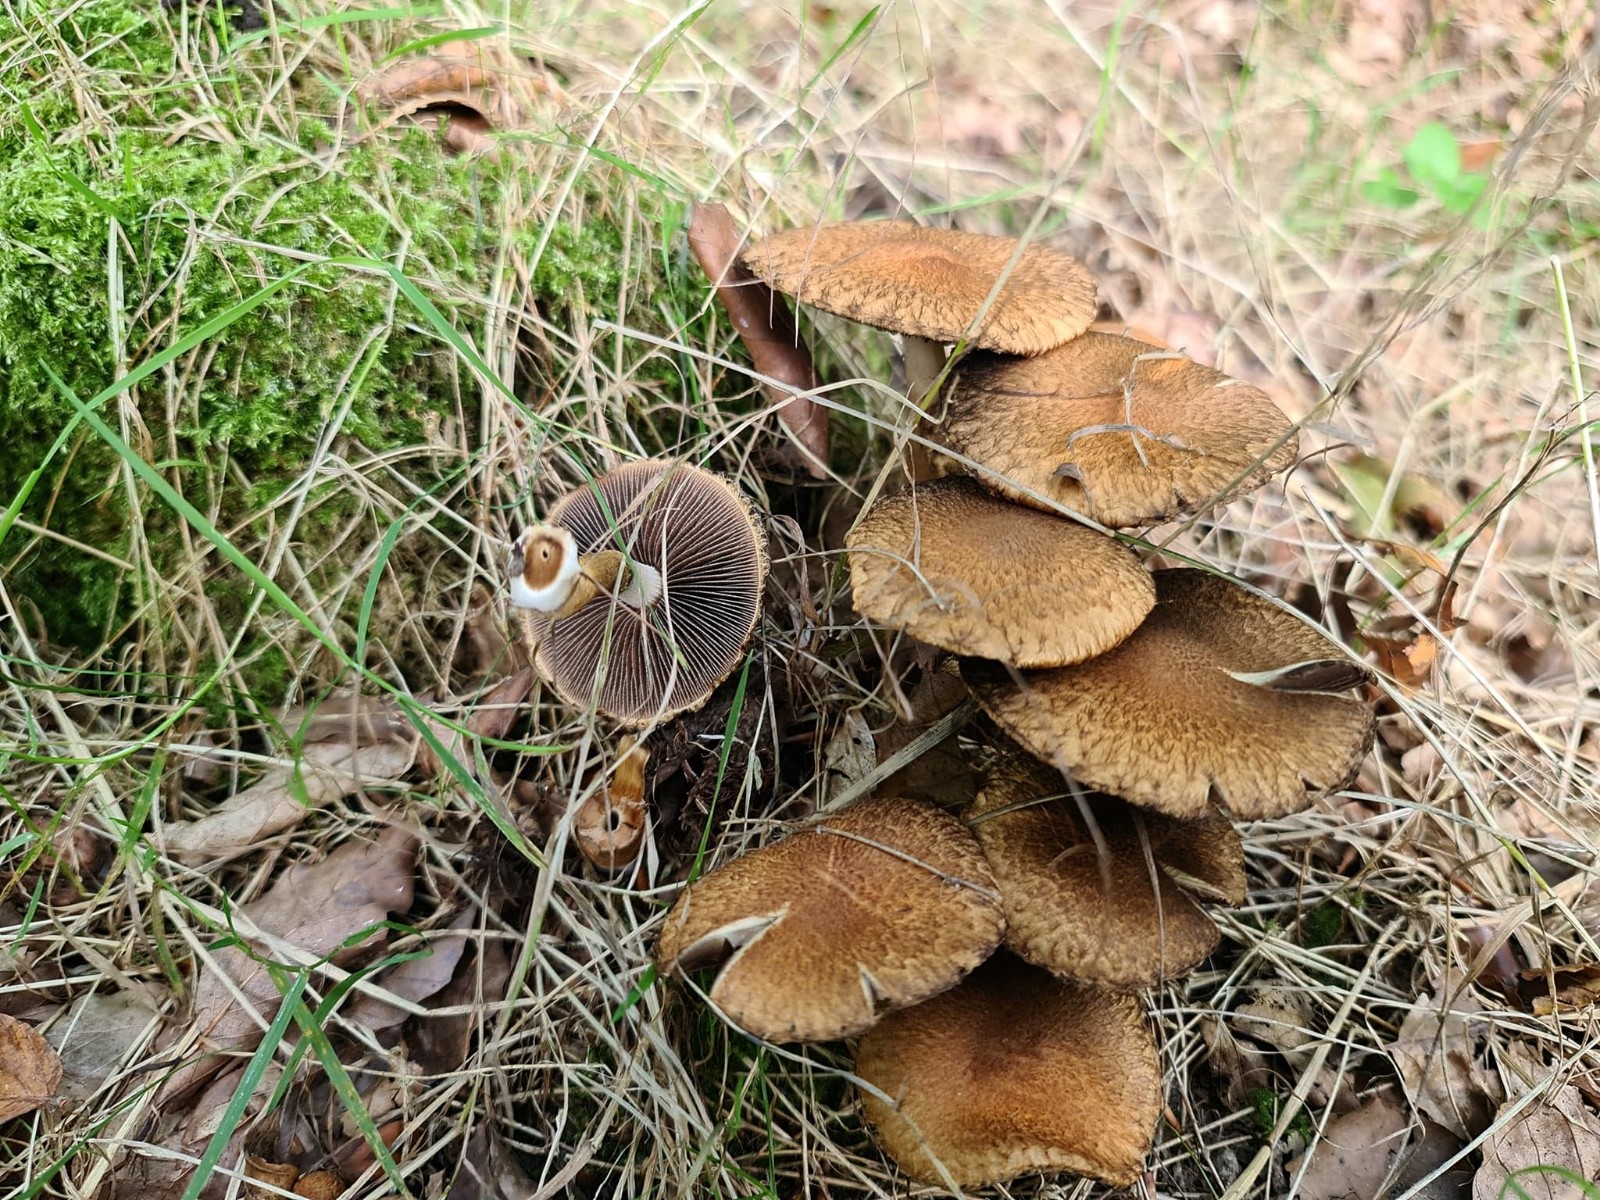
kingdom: Fungi
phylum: Basidiomycota
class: Agaricomycetes
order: Agaricales
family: Psathyrellaceae
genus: Lacrymaria
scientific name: Lacrymaria lacrymabunda
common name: grædende mørkhat
